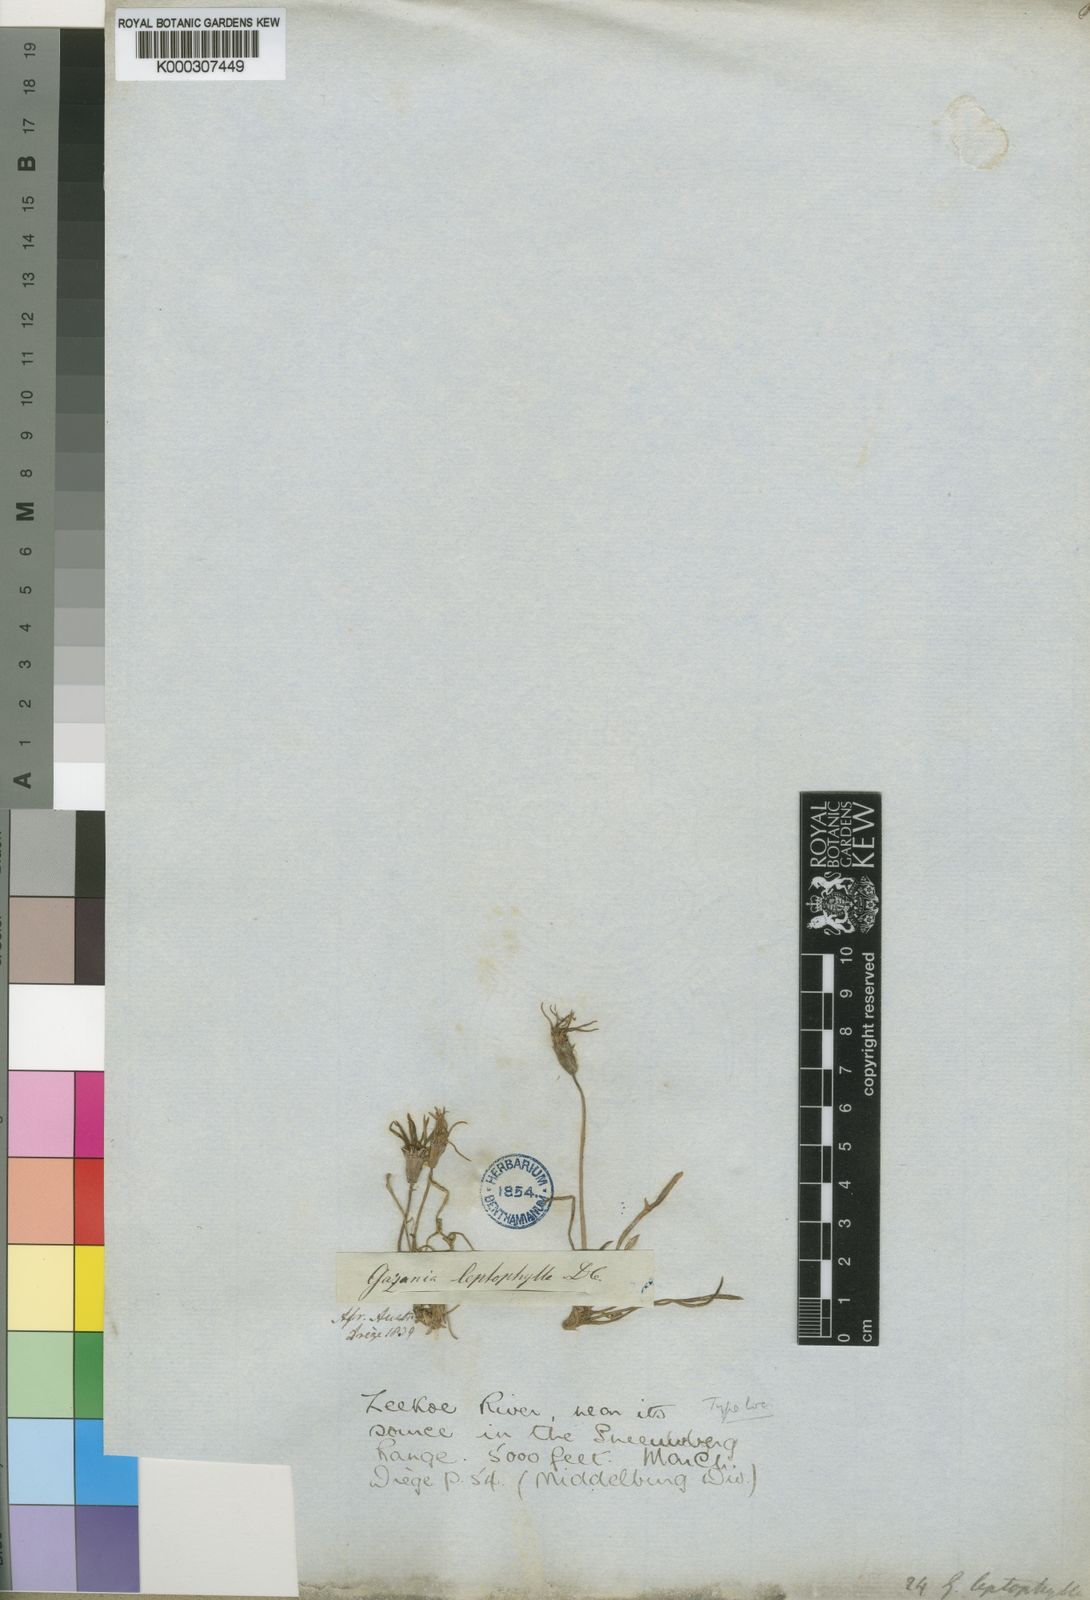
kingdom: Plantae
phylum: Tracheophyta
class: Magnoliopsida
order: Asterales
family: Asteraceae
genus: Gazania
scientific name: Gazania krebsiana
